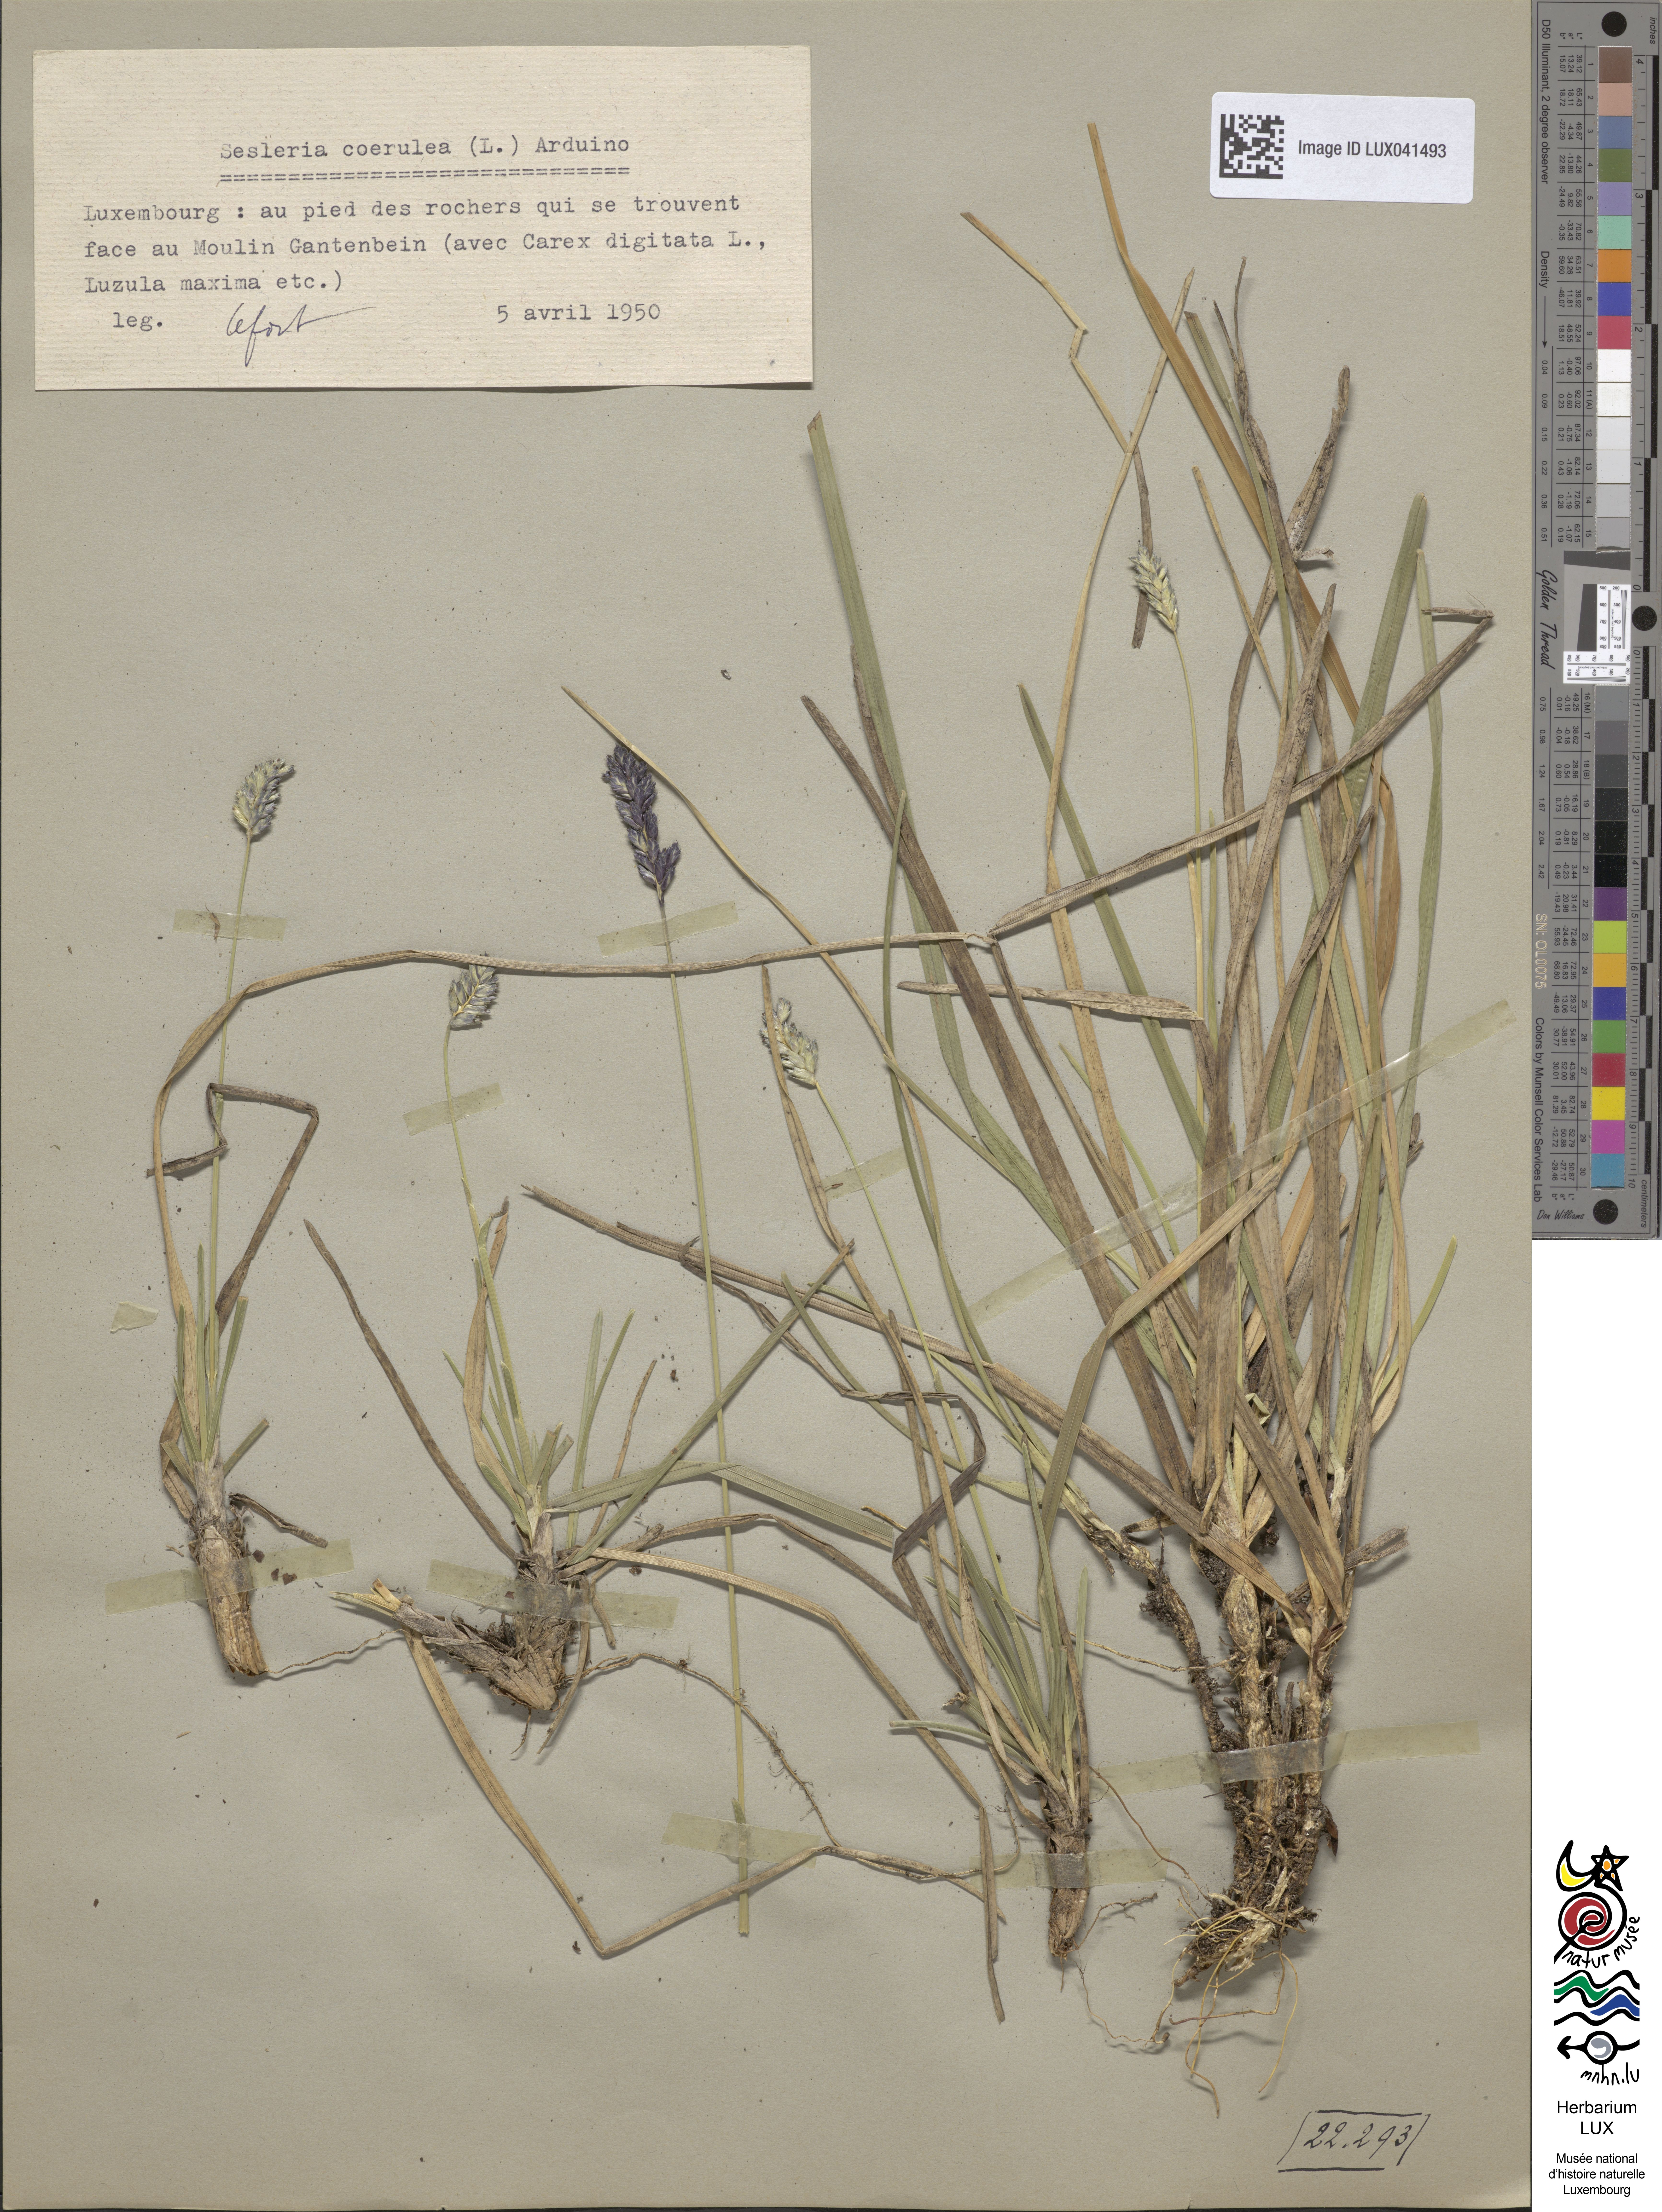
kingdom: Plantae
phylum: Tracheophyta
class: Liliopsida
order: Poales
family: Poaceae
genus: Sesleria
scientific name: Sesleria albicans
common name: Blue moor-grass
